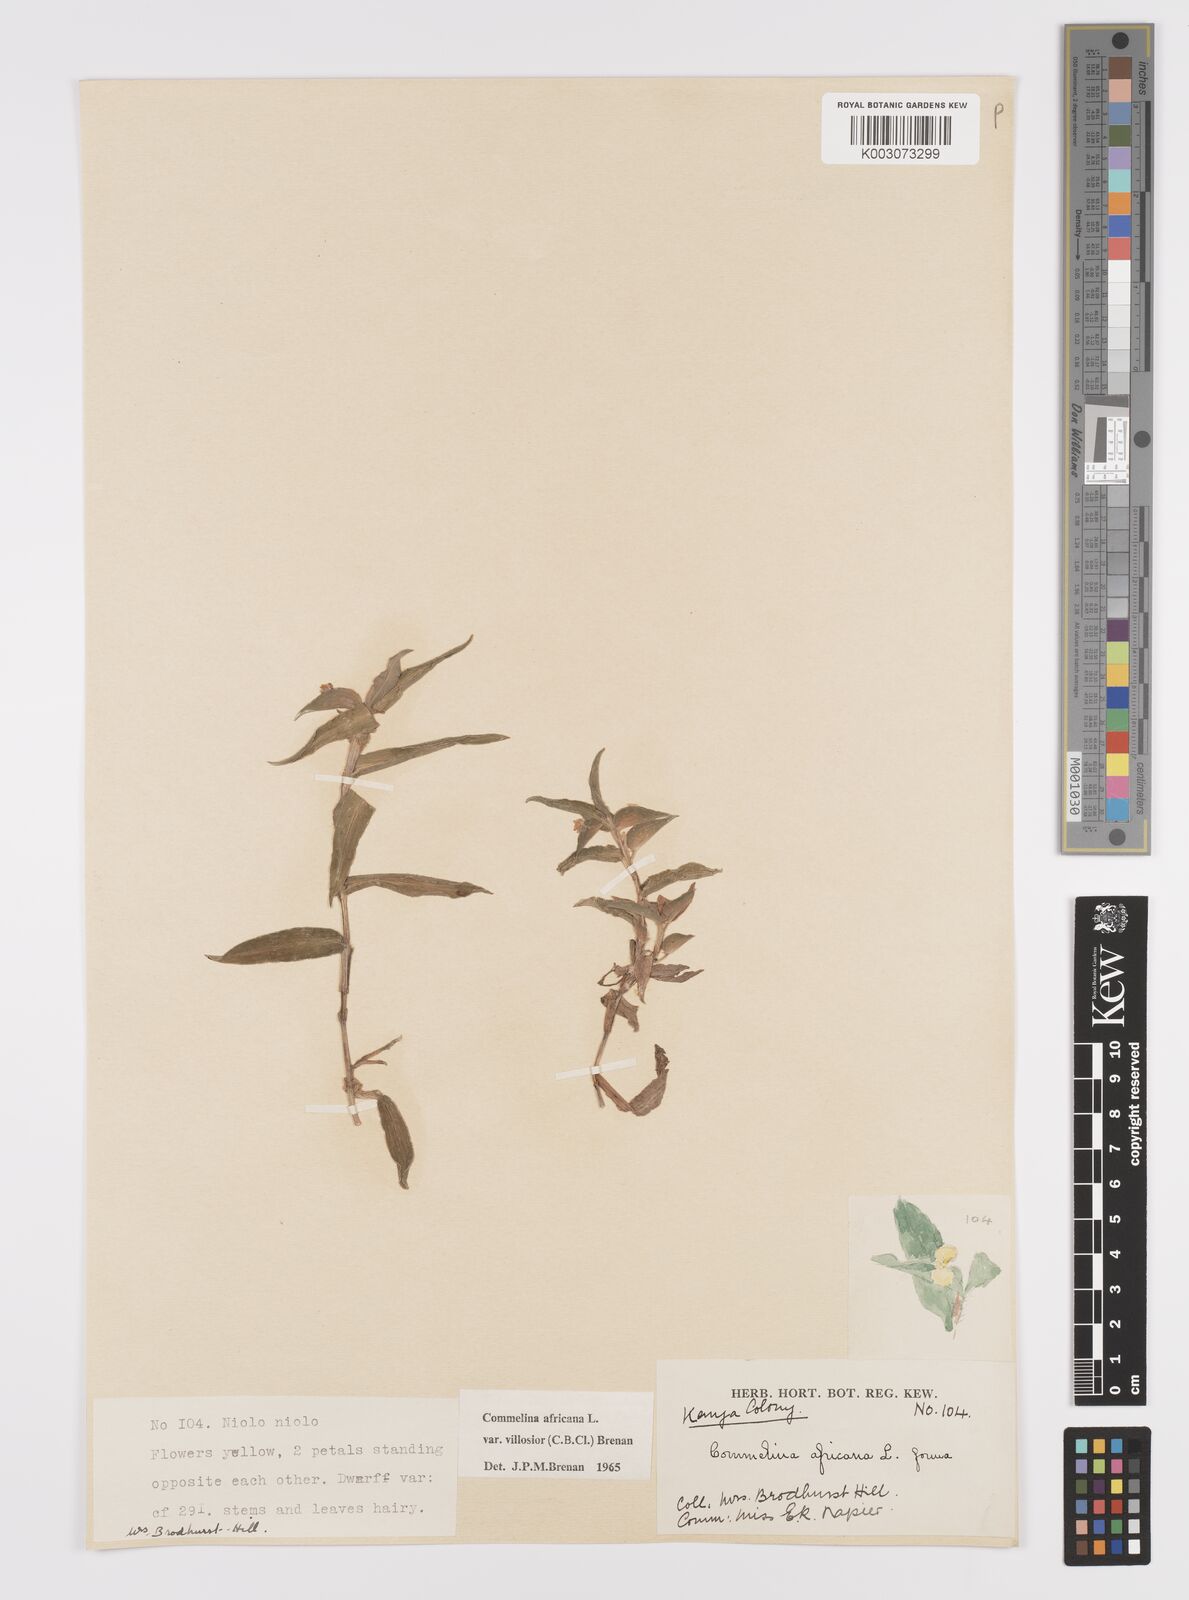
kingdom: Plantae
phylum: Tracheophyta
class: Liliopsida
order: Commelinales
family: Commelinaceae
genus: Commelina
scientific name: Commelina africana
